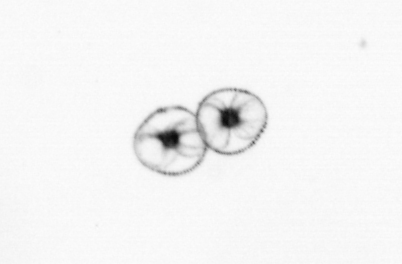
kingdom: Chromista
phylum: Myzozoa
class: Dinophyceae
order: Noctilucales
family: Noctilucaceae
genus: Noctiluca
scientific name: Noctiluca scintillans
